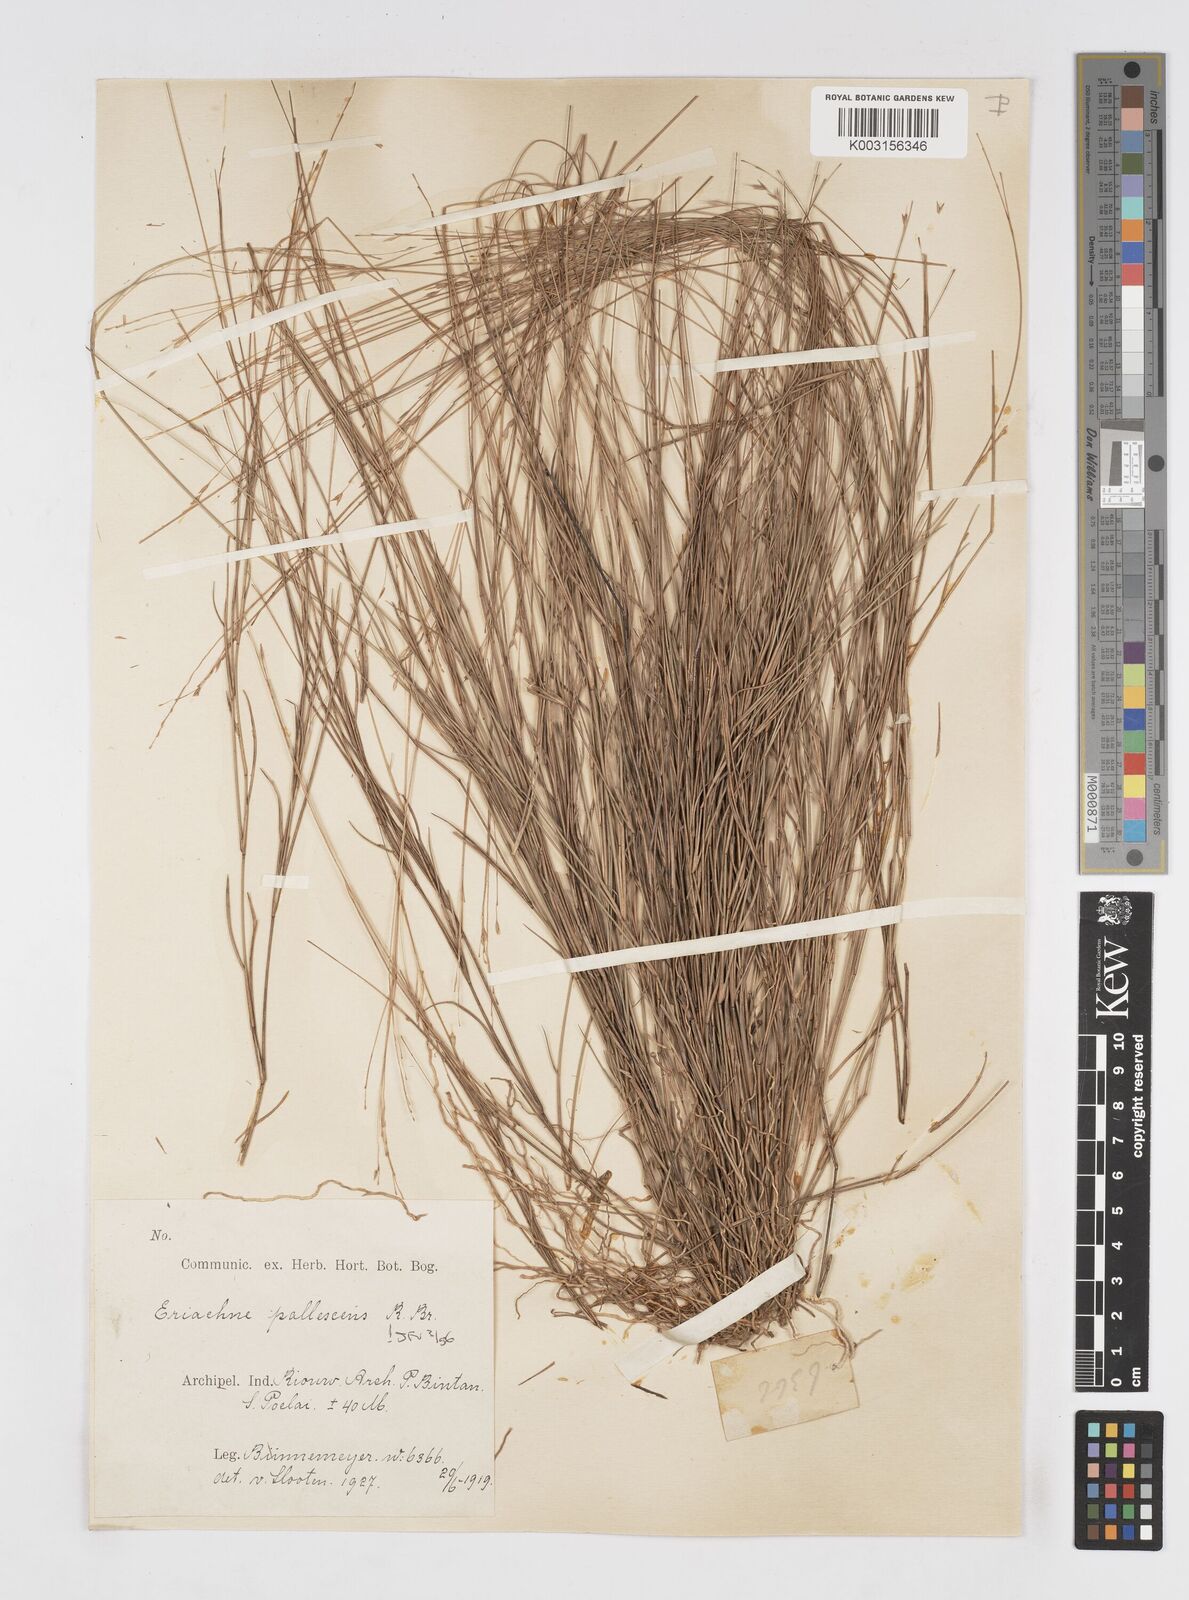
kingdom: Plantae
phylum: Tracheophyta
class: Liliopsida
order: Poales
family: Poaceae
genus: Eriachne
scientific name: Eriachne pallescens
